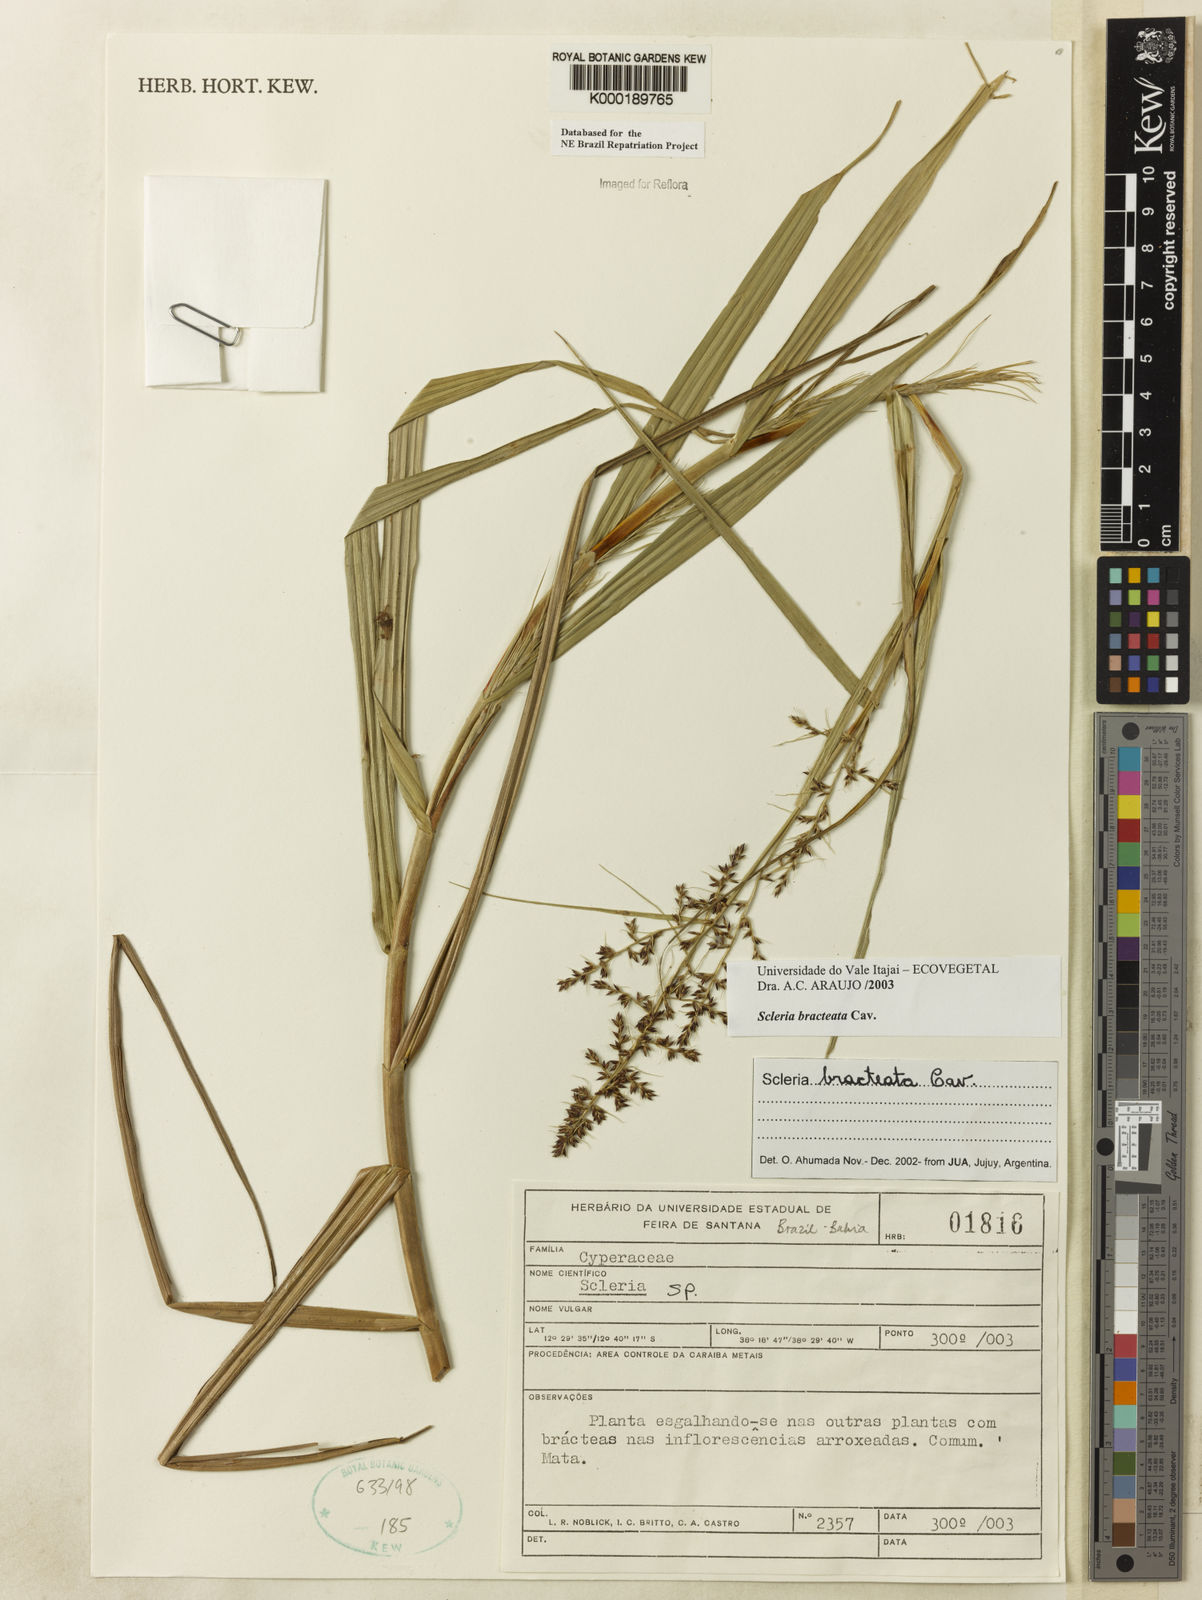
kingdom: Plantae
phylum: Tracheophyta
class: Liliopsida
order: Poales
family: Cyperaceae
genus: Scleria
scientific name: Scleria
